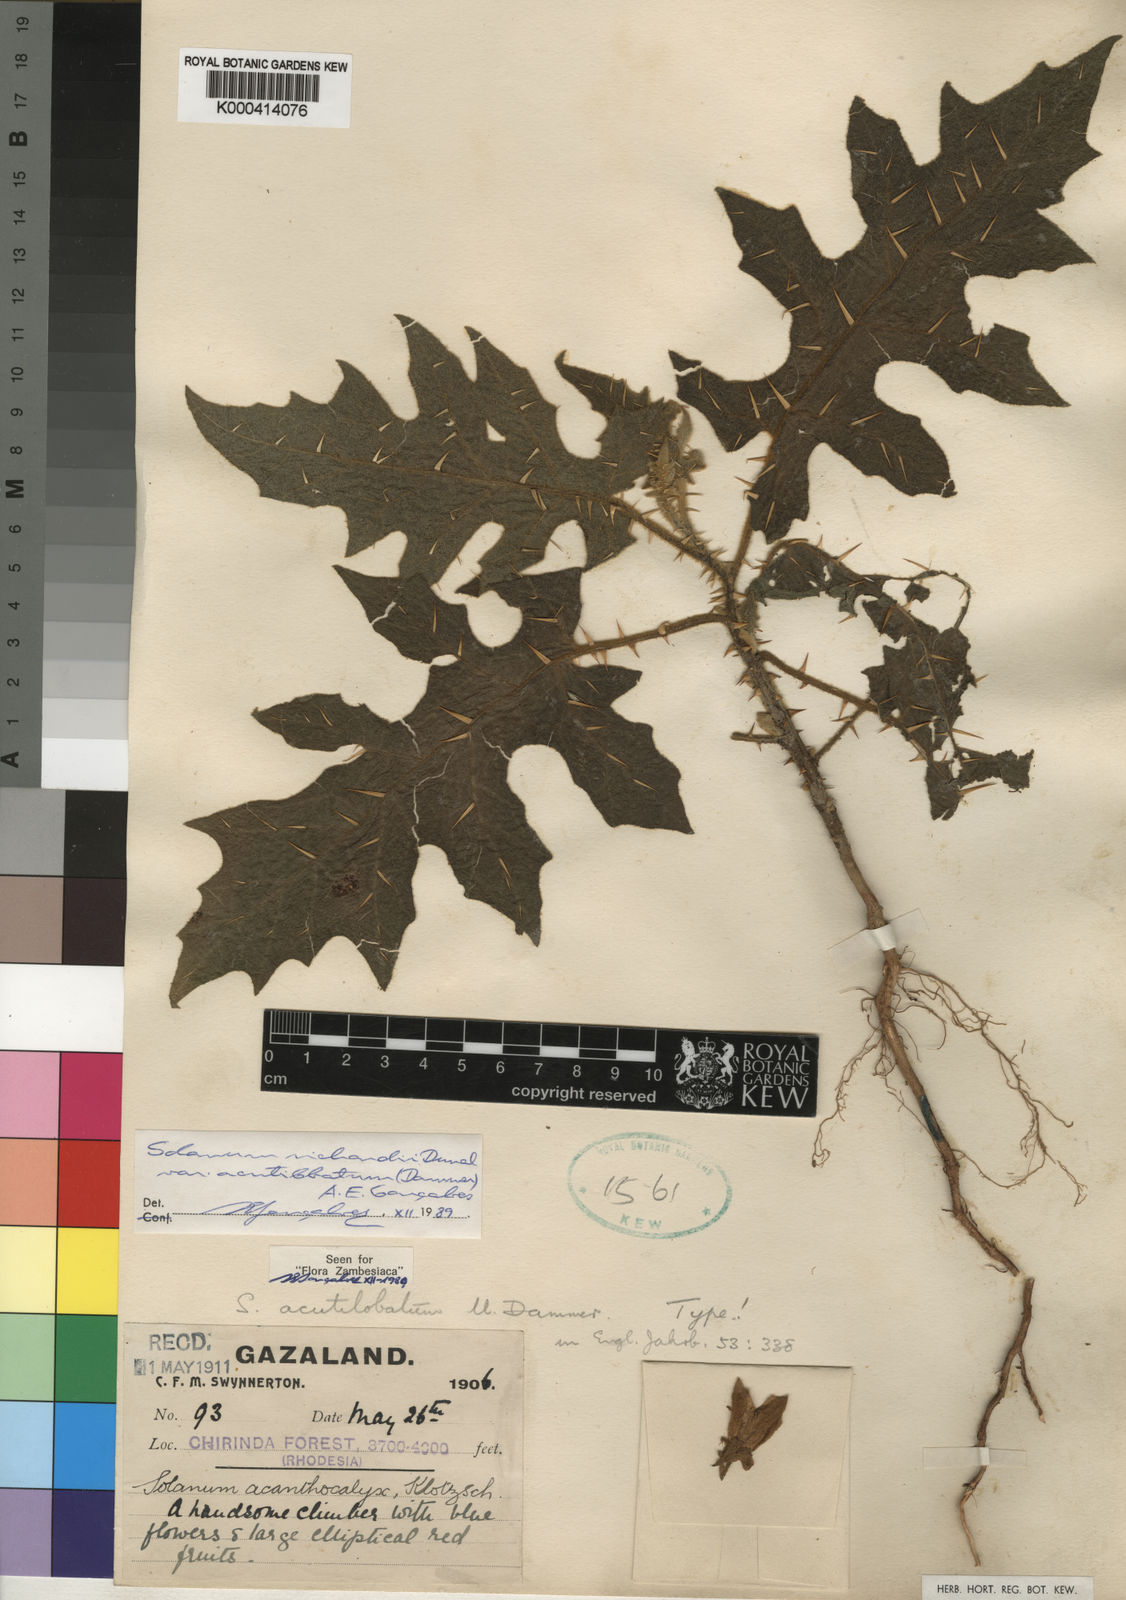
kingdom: Plantae
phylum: Tracheophyta
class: Magnoliopsida
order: Solanales
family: Solanaceae
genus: Solanum
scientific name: Solanum richardii
